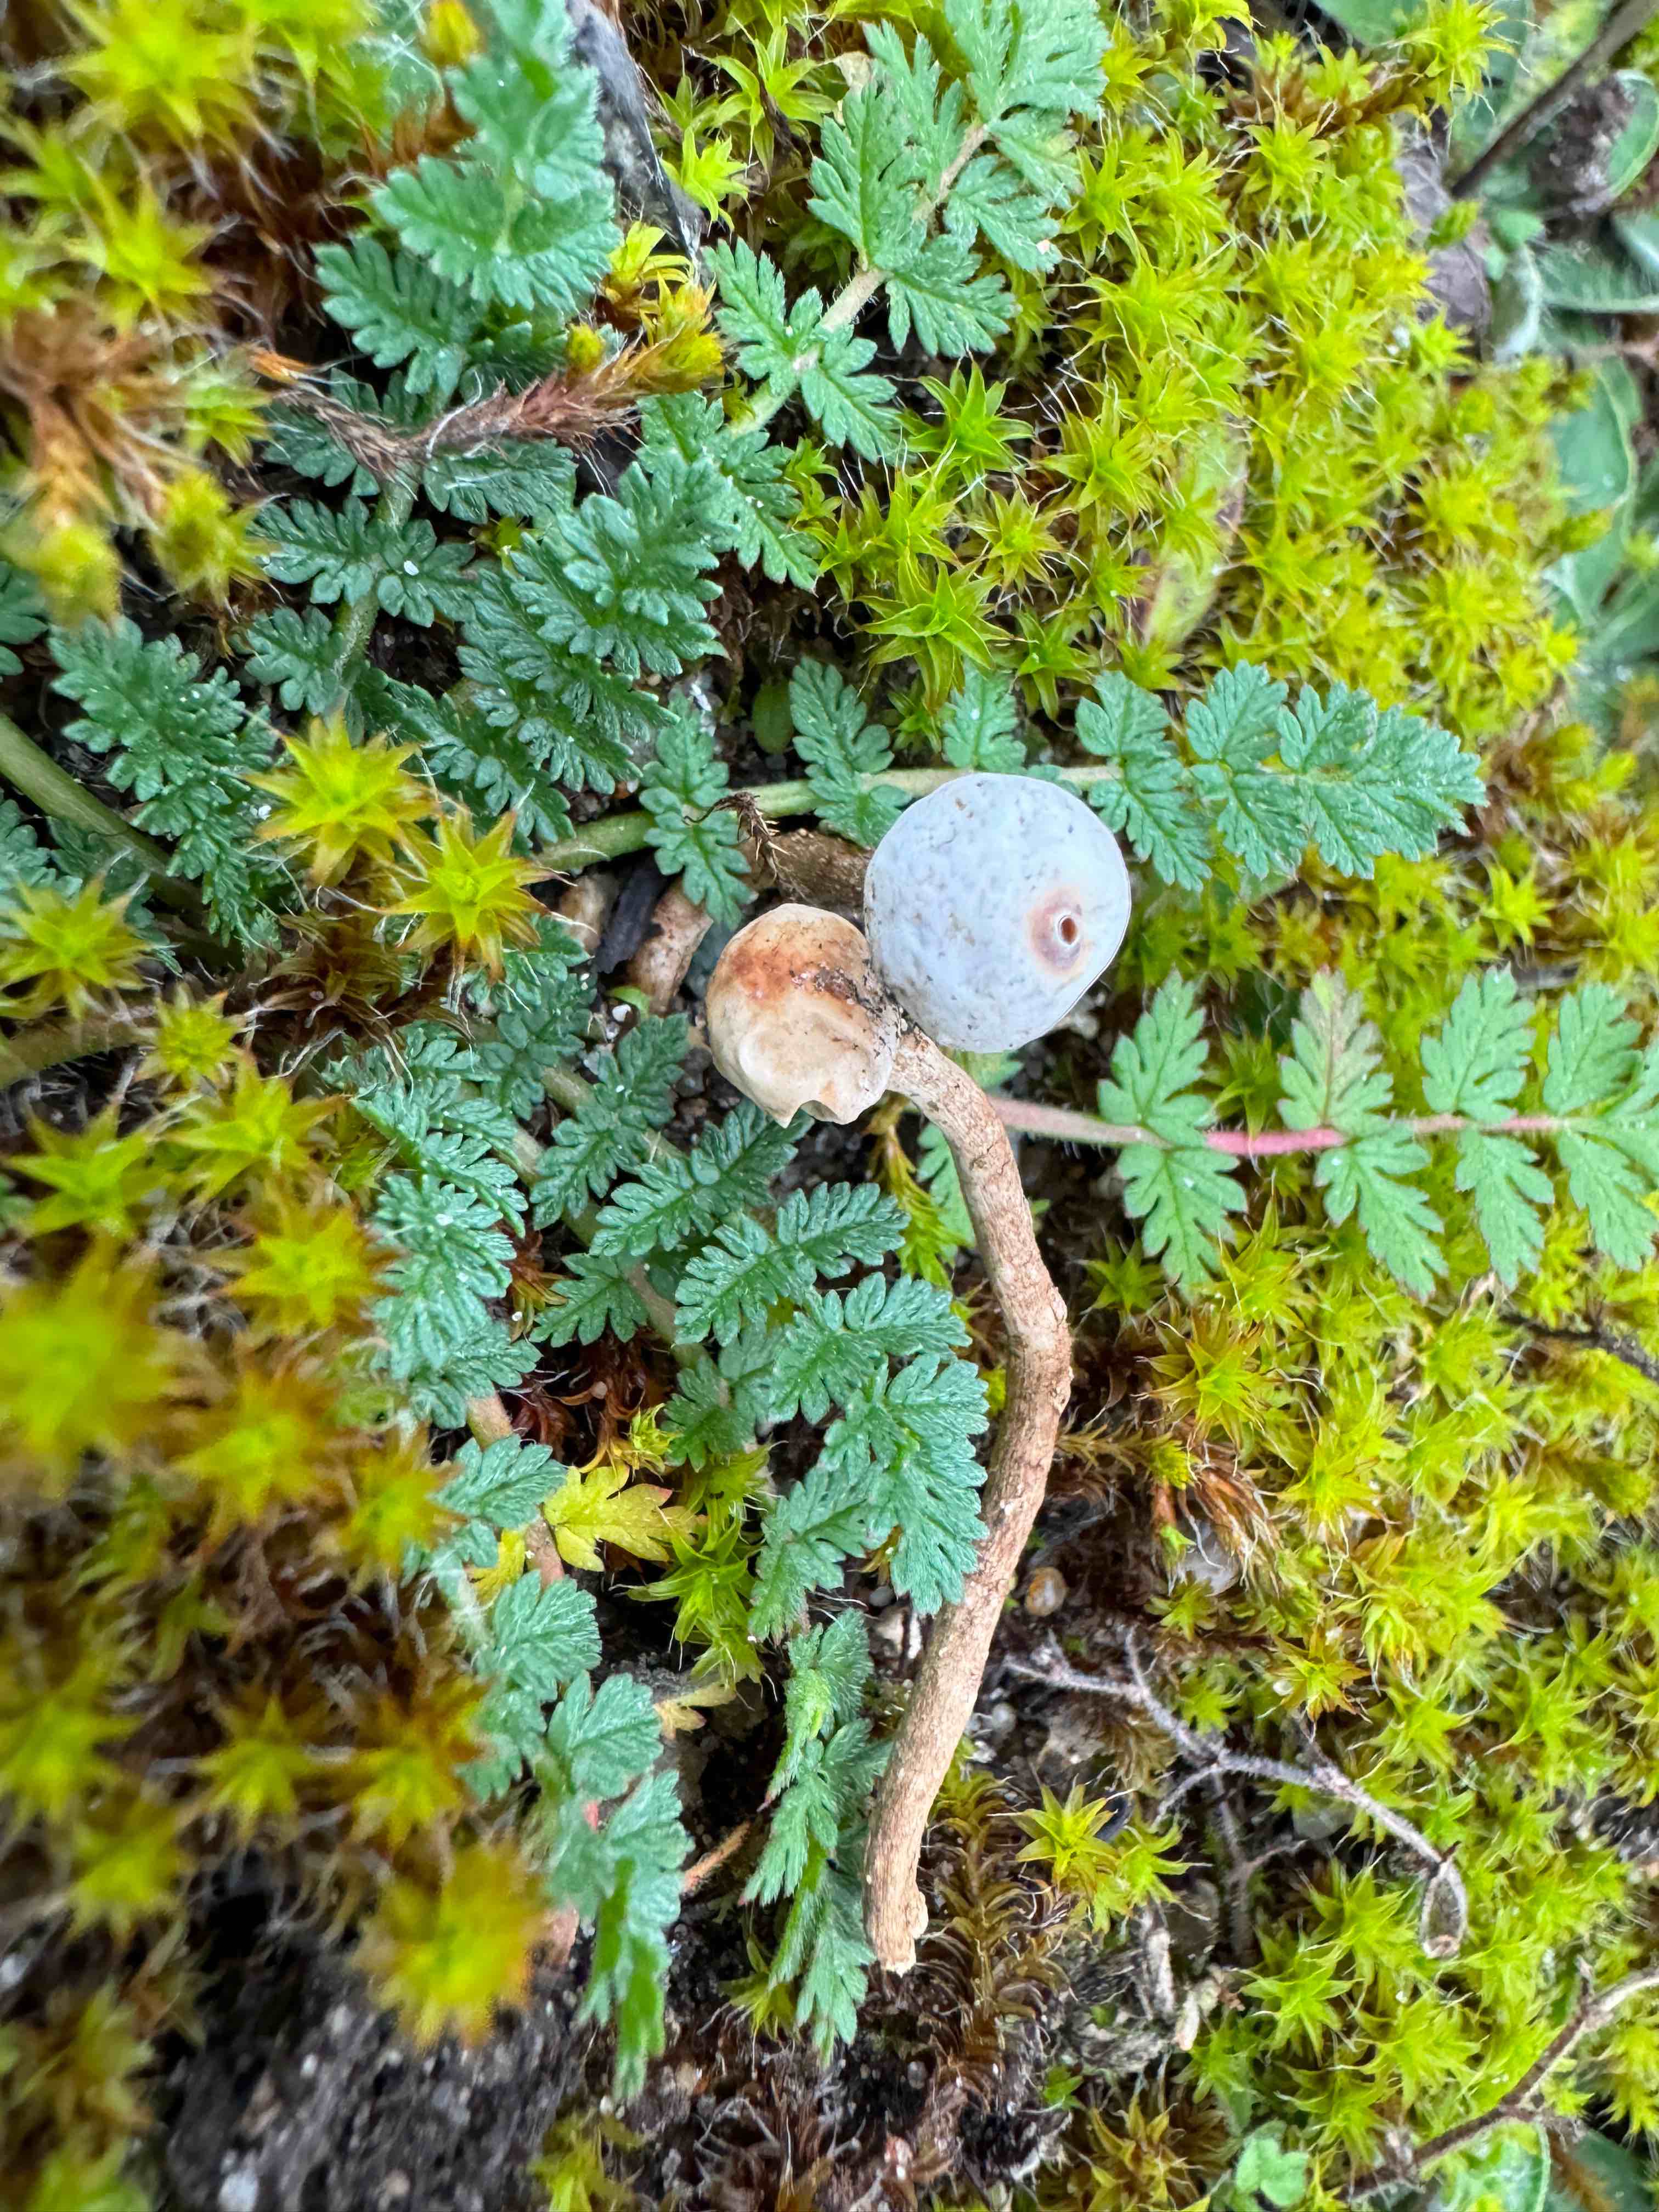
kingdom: Fungi
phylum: Basidiomycota
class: Agaricomycetes
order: Agaricales
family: Agaricaceae
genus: Tulostoma
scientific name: Tulostoma brumale
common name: vinter-stilkbovist
